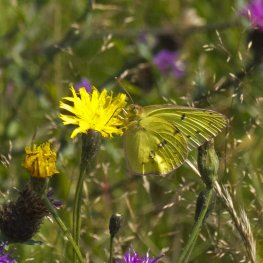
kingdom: Animalia
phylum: Arthropoda
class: Insecta
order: Lepidoptera
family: Pieridae
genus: Colias
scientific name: Colias philodice
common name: Clouded Sulphur
